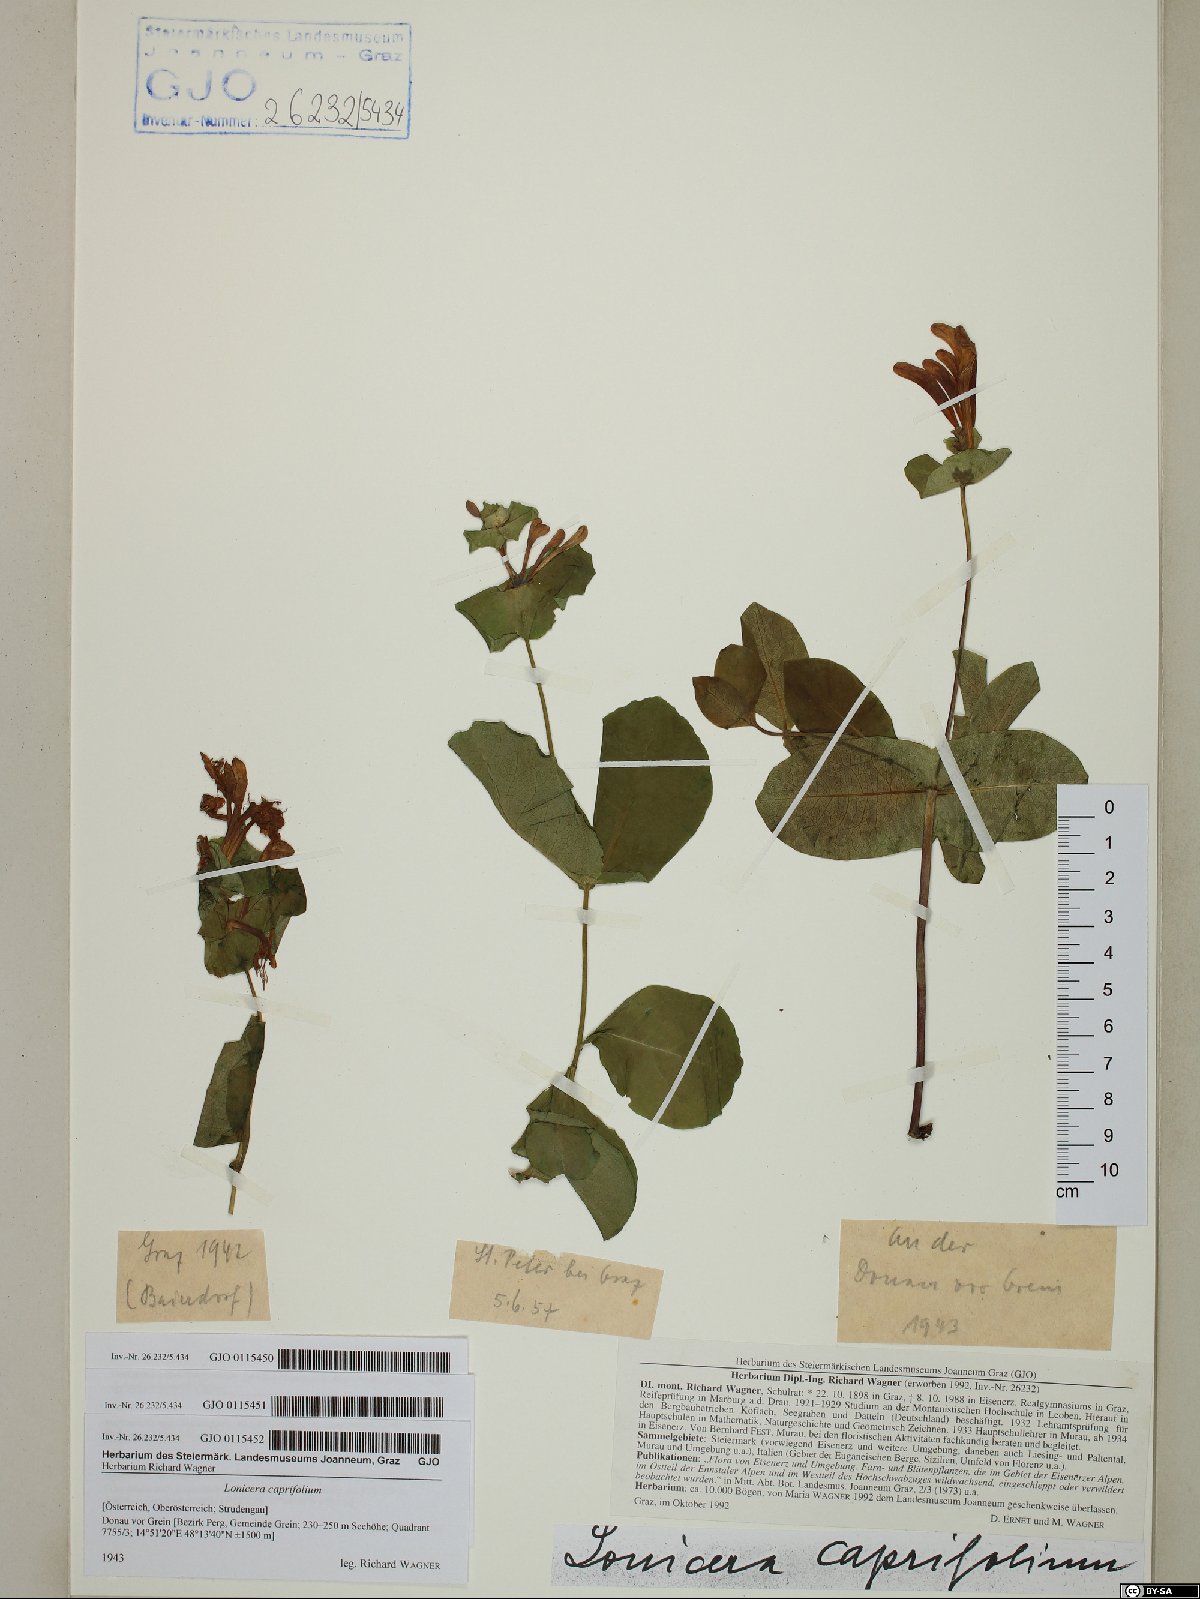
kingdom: Plantae
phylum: Tracheophyta
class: Magnoliopsida
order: Dipsacales
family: Caprifoliaceae
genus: Lonicera
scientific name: Lonicera caprifolium
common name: Perfoliate honeysuckle
